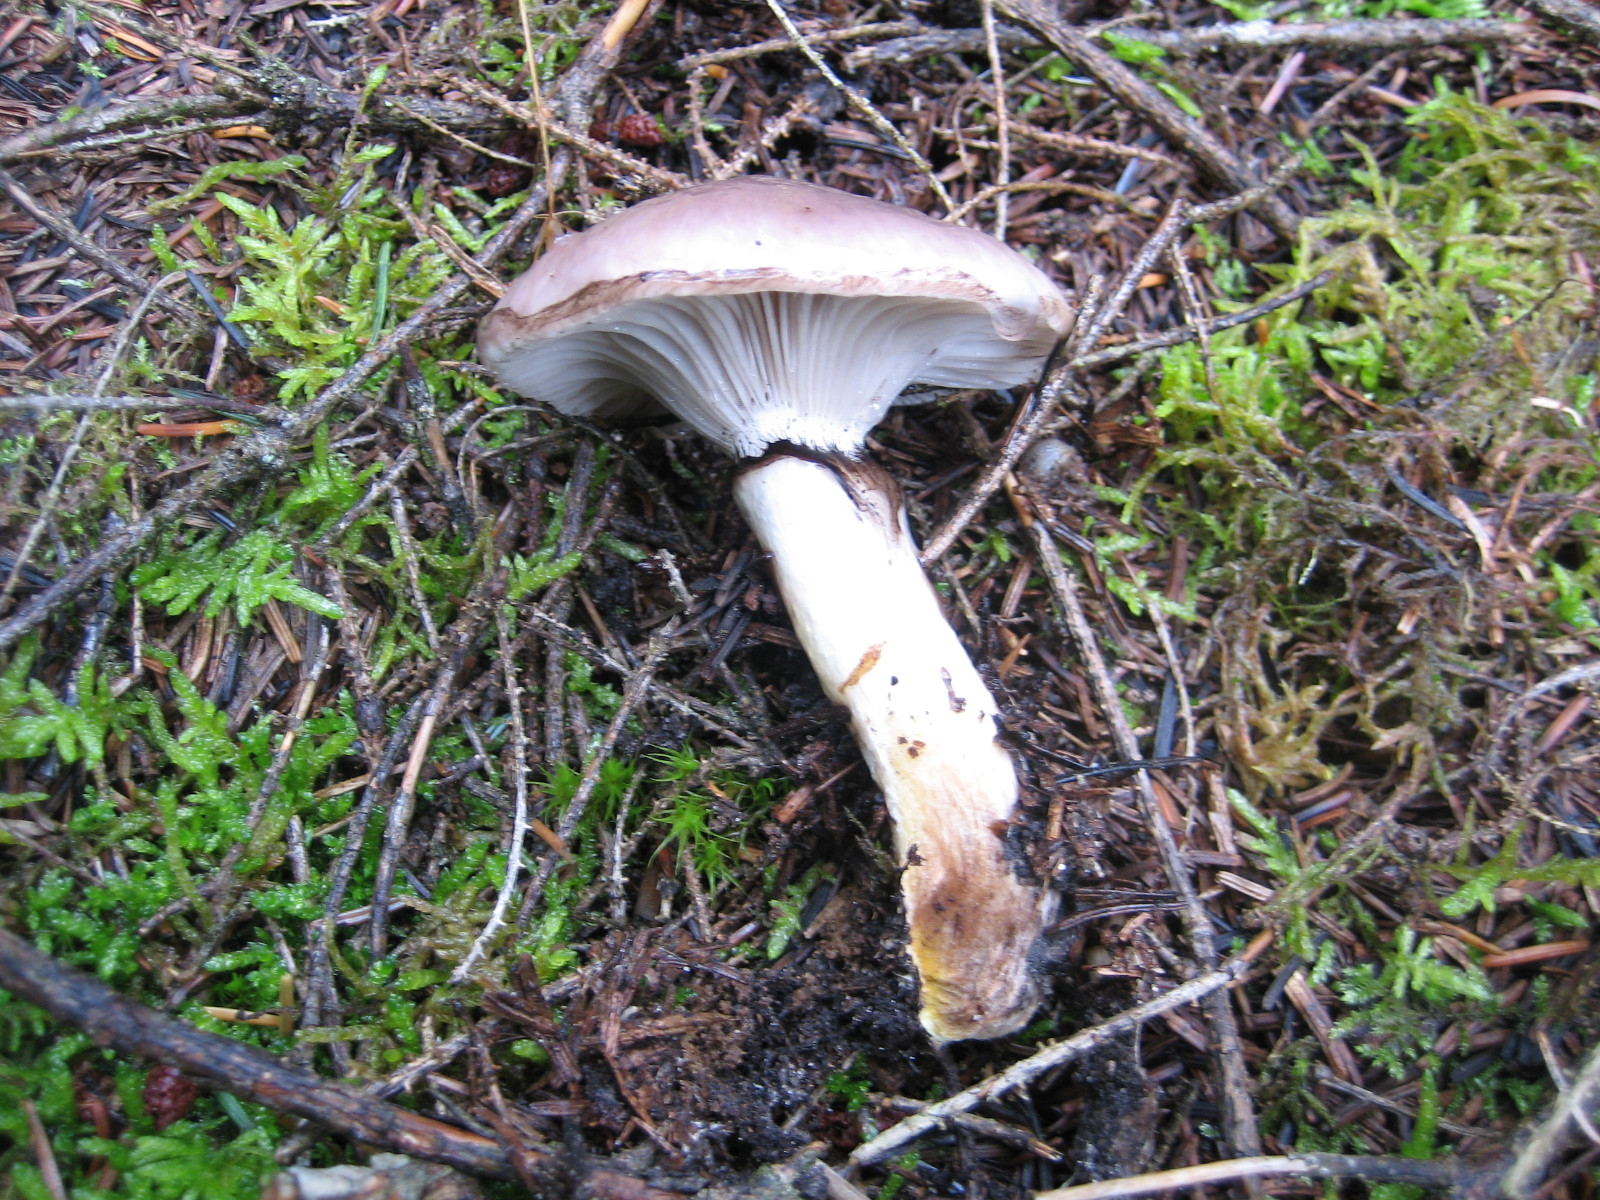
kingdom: Fungi
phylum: Basidiomycota
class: Agaricomycetes
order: Boletales
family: Gomphidiaceae
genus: Gomphidius
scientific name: Gomphidius glutinosus
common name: grå slimslør
